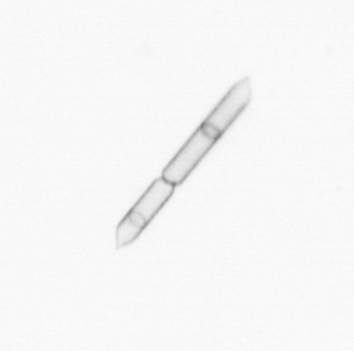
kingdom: Chromista
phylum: Ochrophyta
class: Bacillariophyceae
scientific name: Bacillariophyceae
